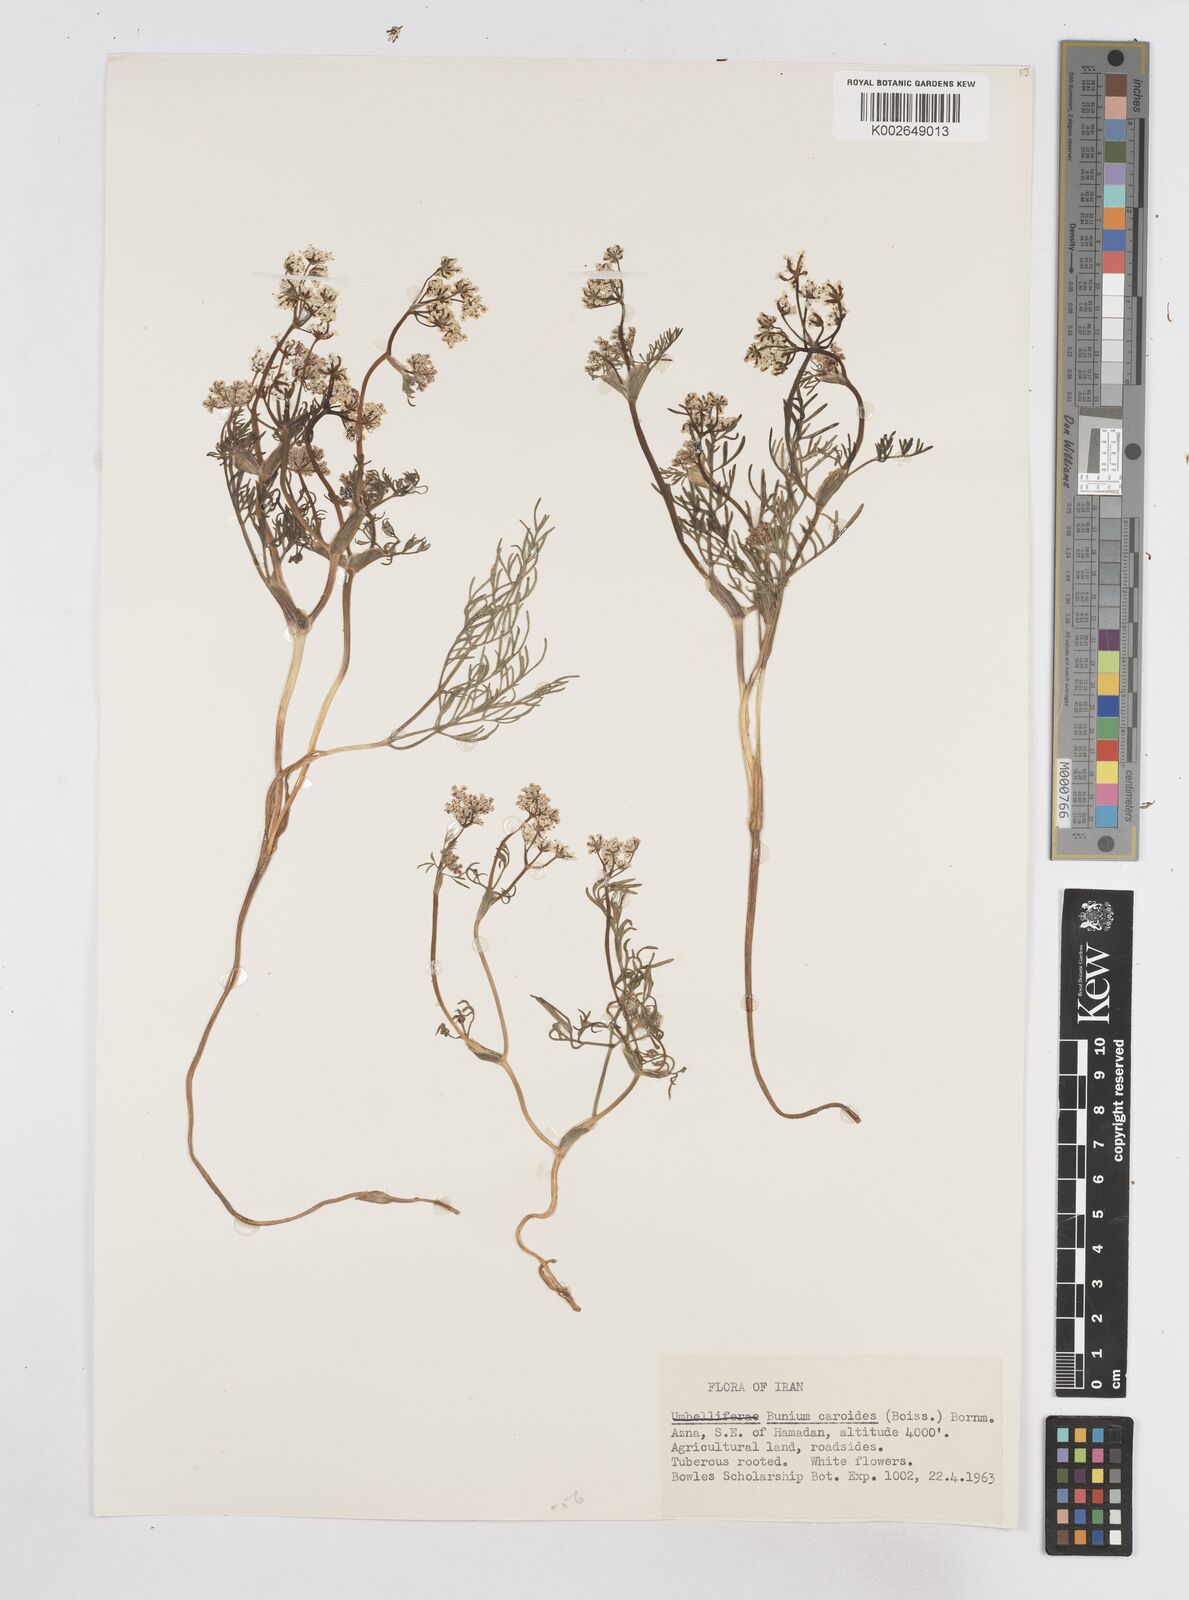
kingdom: Plantae
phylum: Tracheophyta
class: Magnoliopsida
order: Apiales
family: Apiaceae
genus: Elwendia
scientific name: Elwendia caroides
